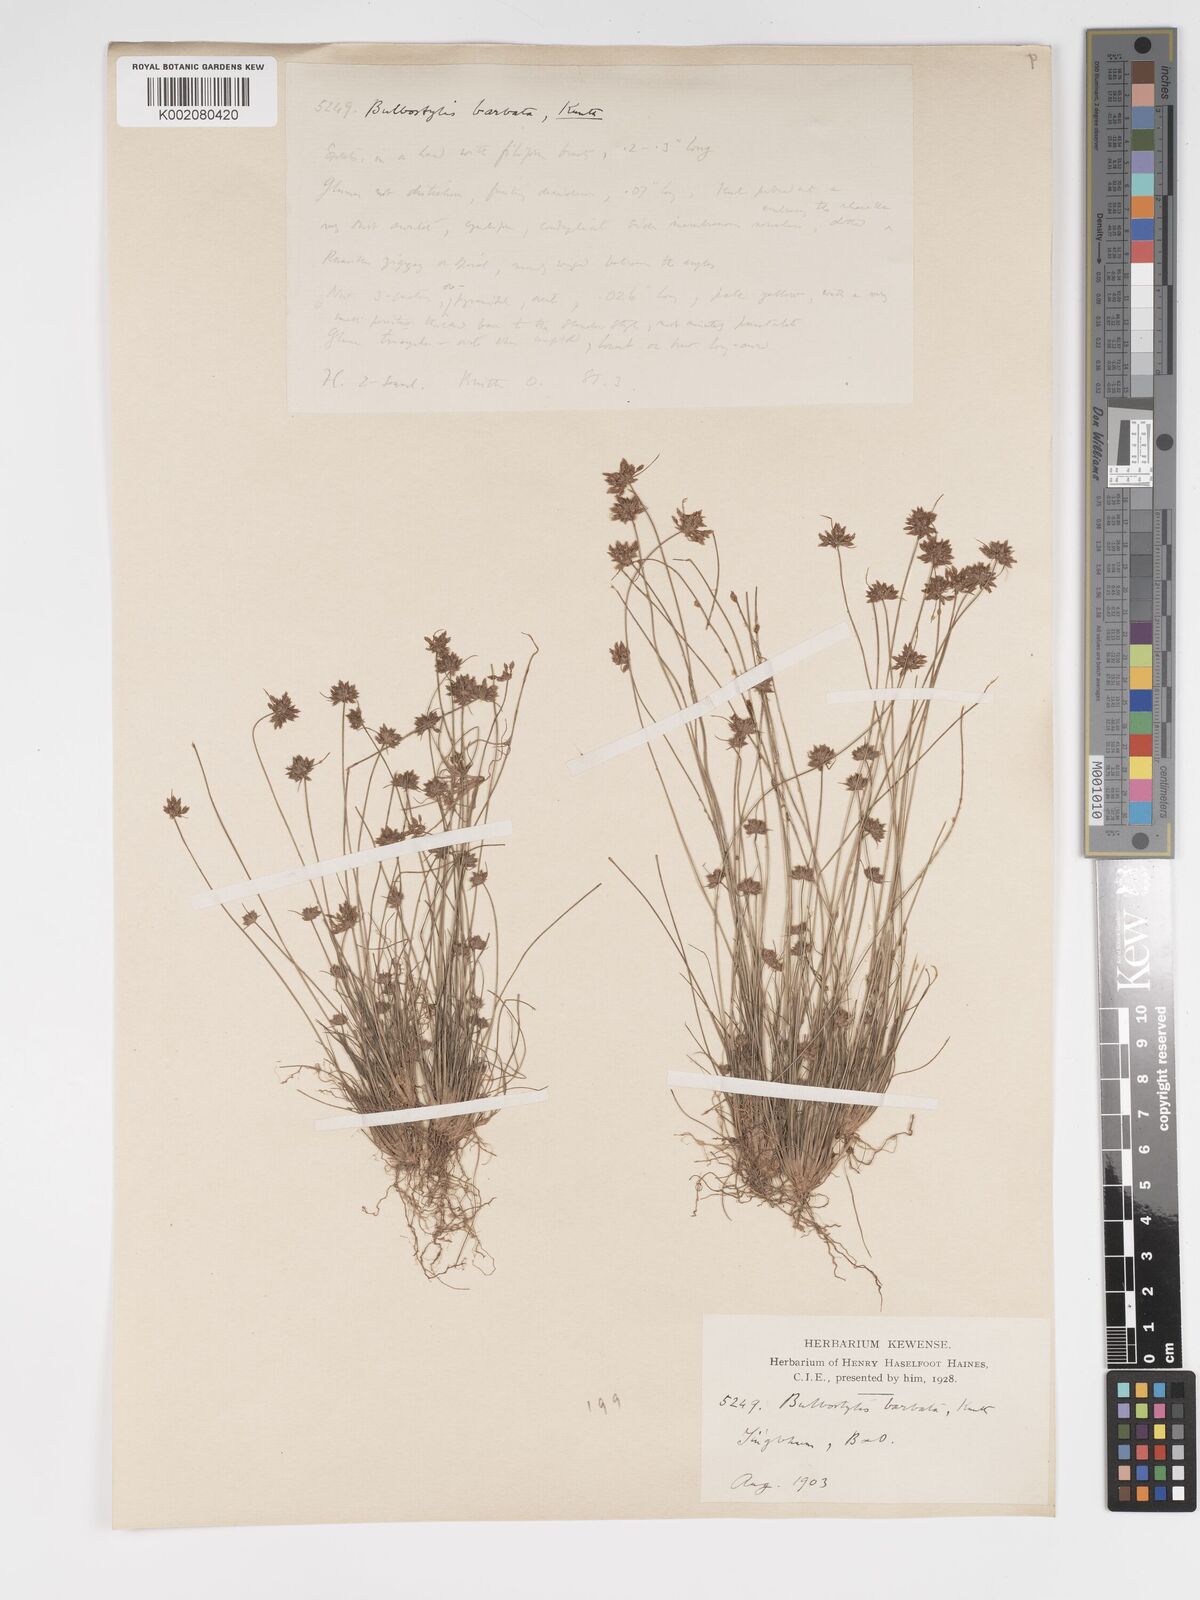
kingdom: Plantae
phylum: Tracheophyta
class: Liliopsida
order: Poales
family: Cyperaceae
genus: Bulbostylis
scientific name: Bulbostylis
